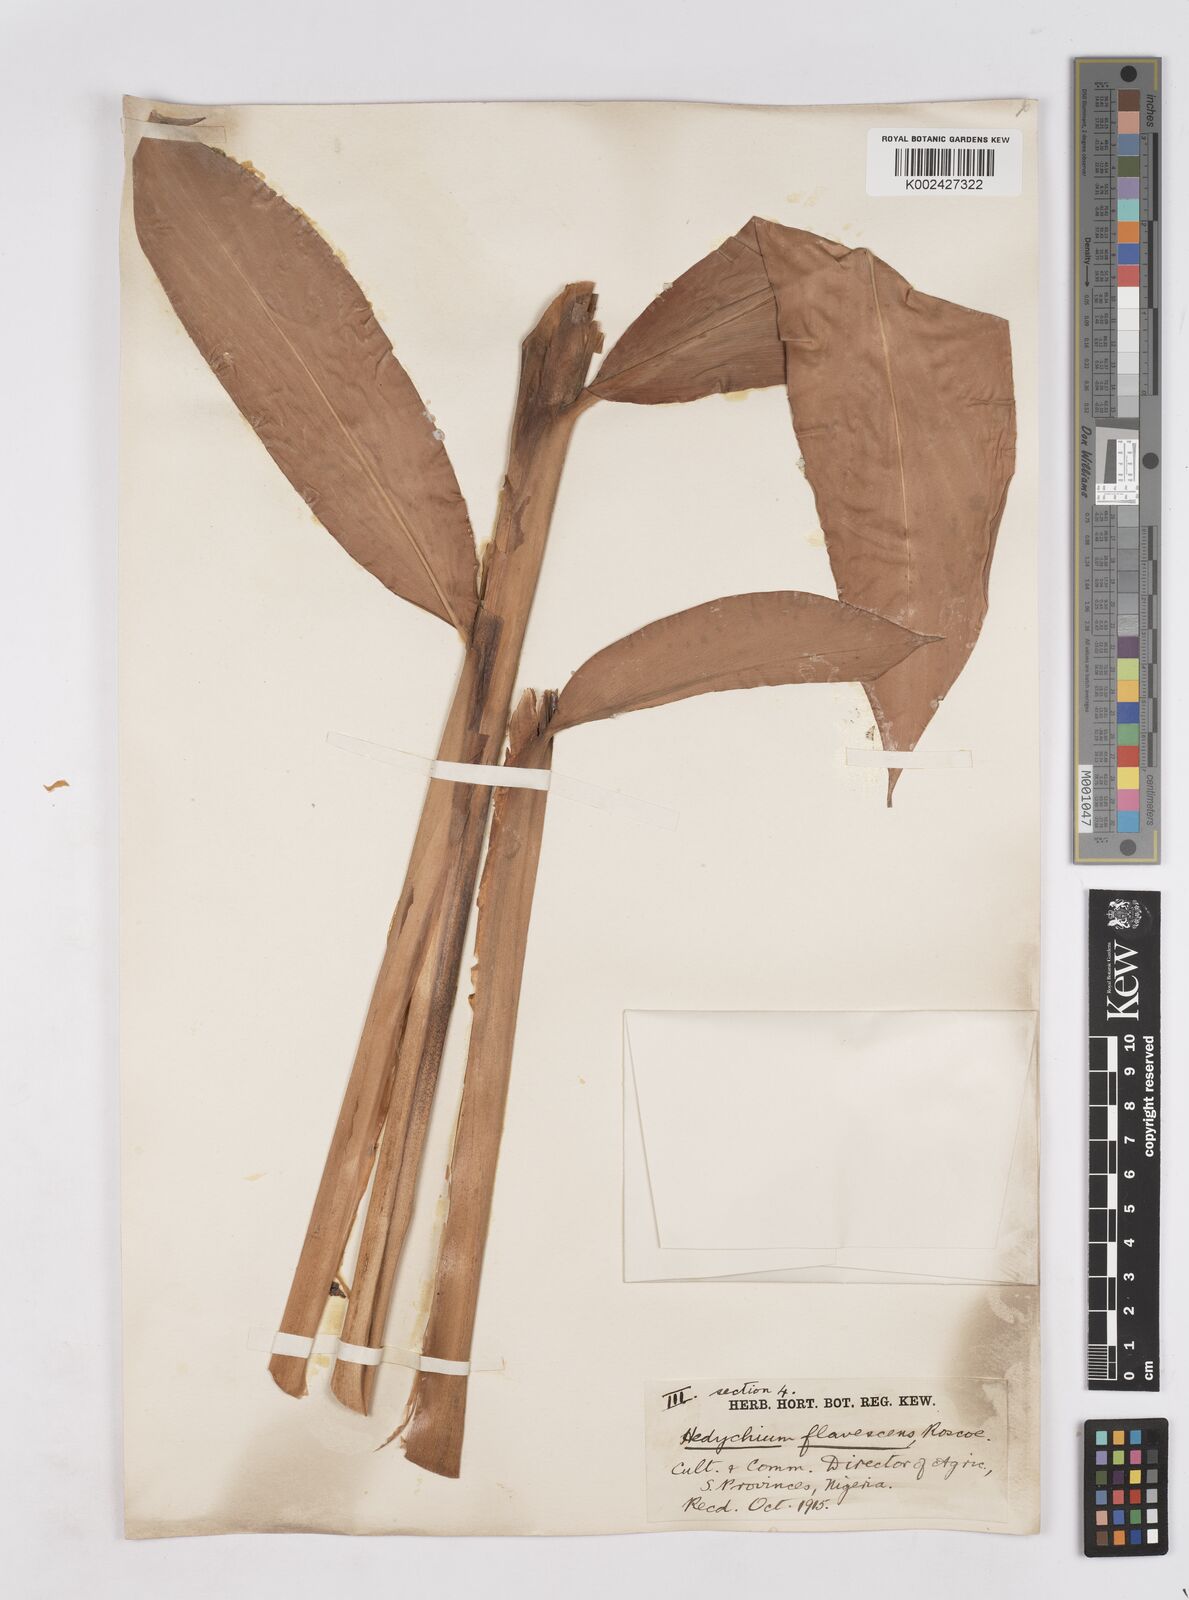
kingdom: Plantae
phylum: Tracheophyta
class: Liliopsida
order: Zingiberales
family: Zingiberaceae
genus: Hedychium
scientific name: Hedychium flavescens
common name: Yellow ginger
